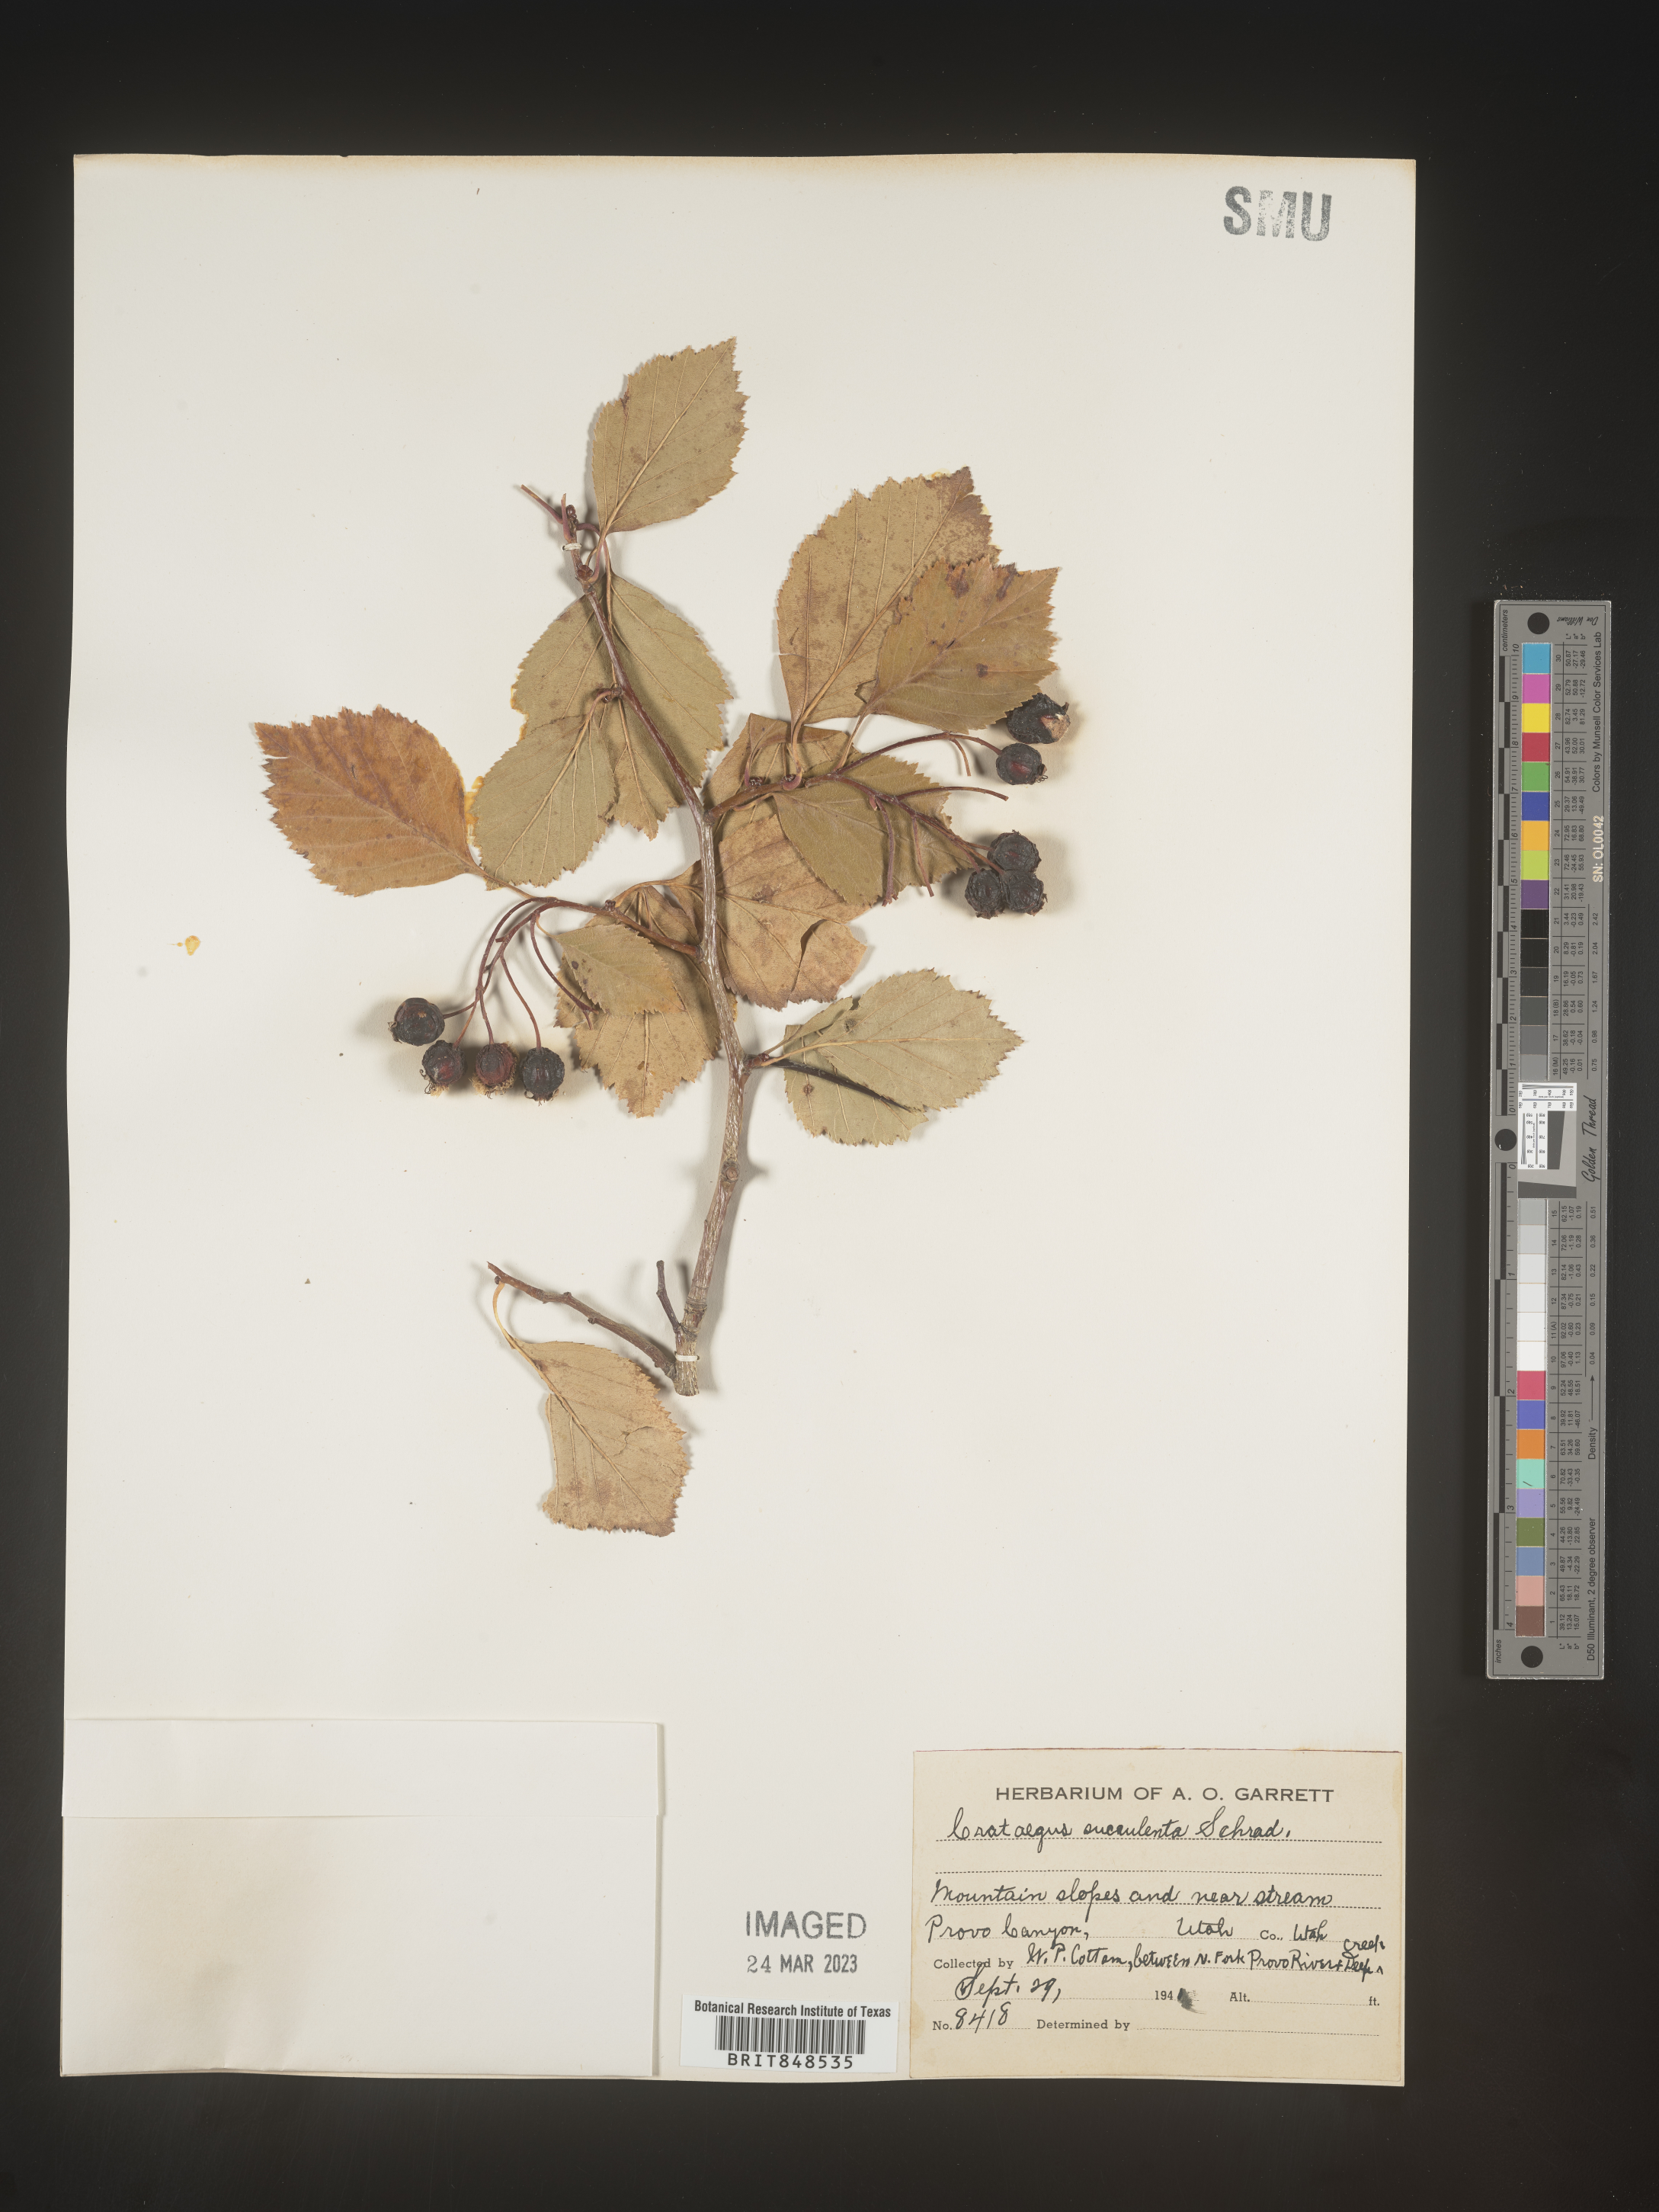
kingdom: Plantae
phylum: Tracheophyta
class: Magnoliopsida
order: Rosales
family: Rosaceae
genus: Crataegus
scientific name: Crataegus succulenta
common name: Fleshy hawthorn
